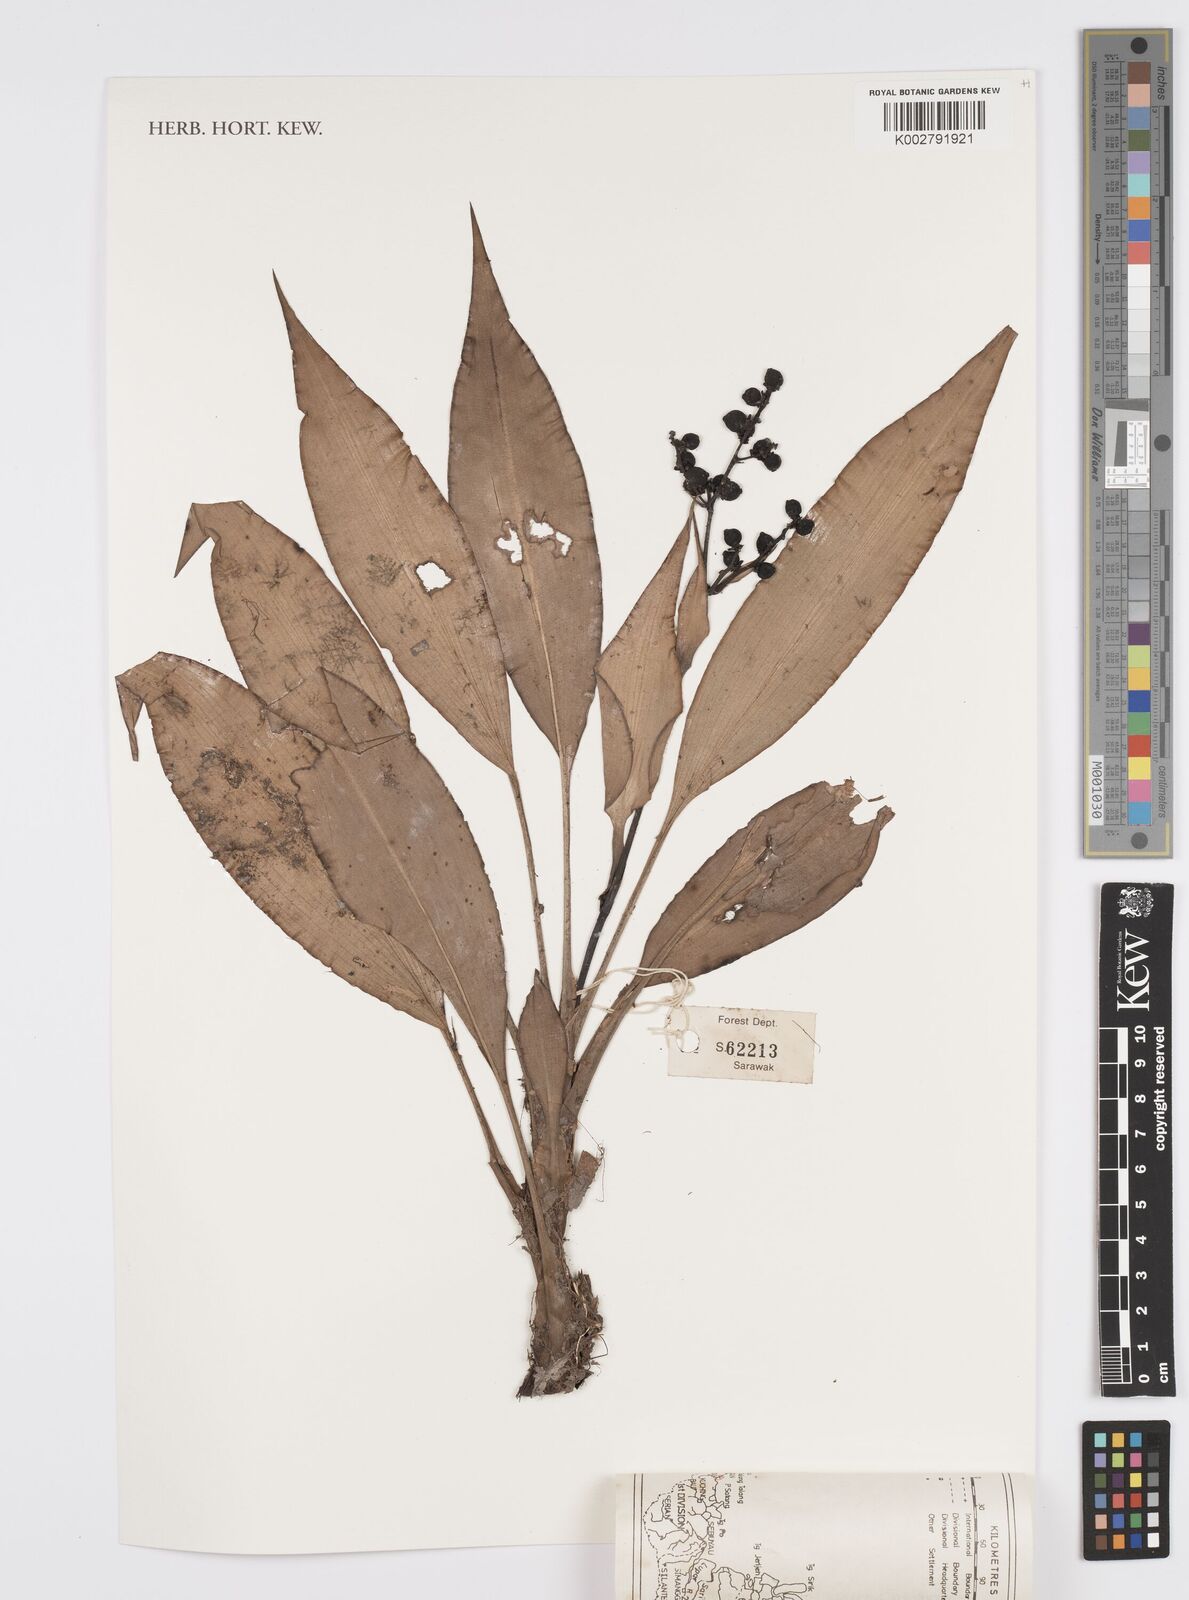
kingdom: Plantae
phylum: Tracheophyta
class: Liliopsida
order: Commelinales
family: Hanguanaceae
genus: Hanguana
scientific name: Hanguana malayana
